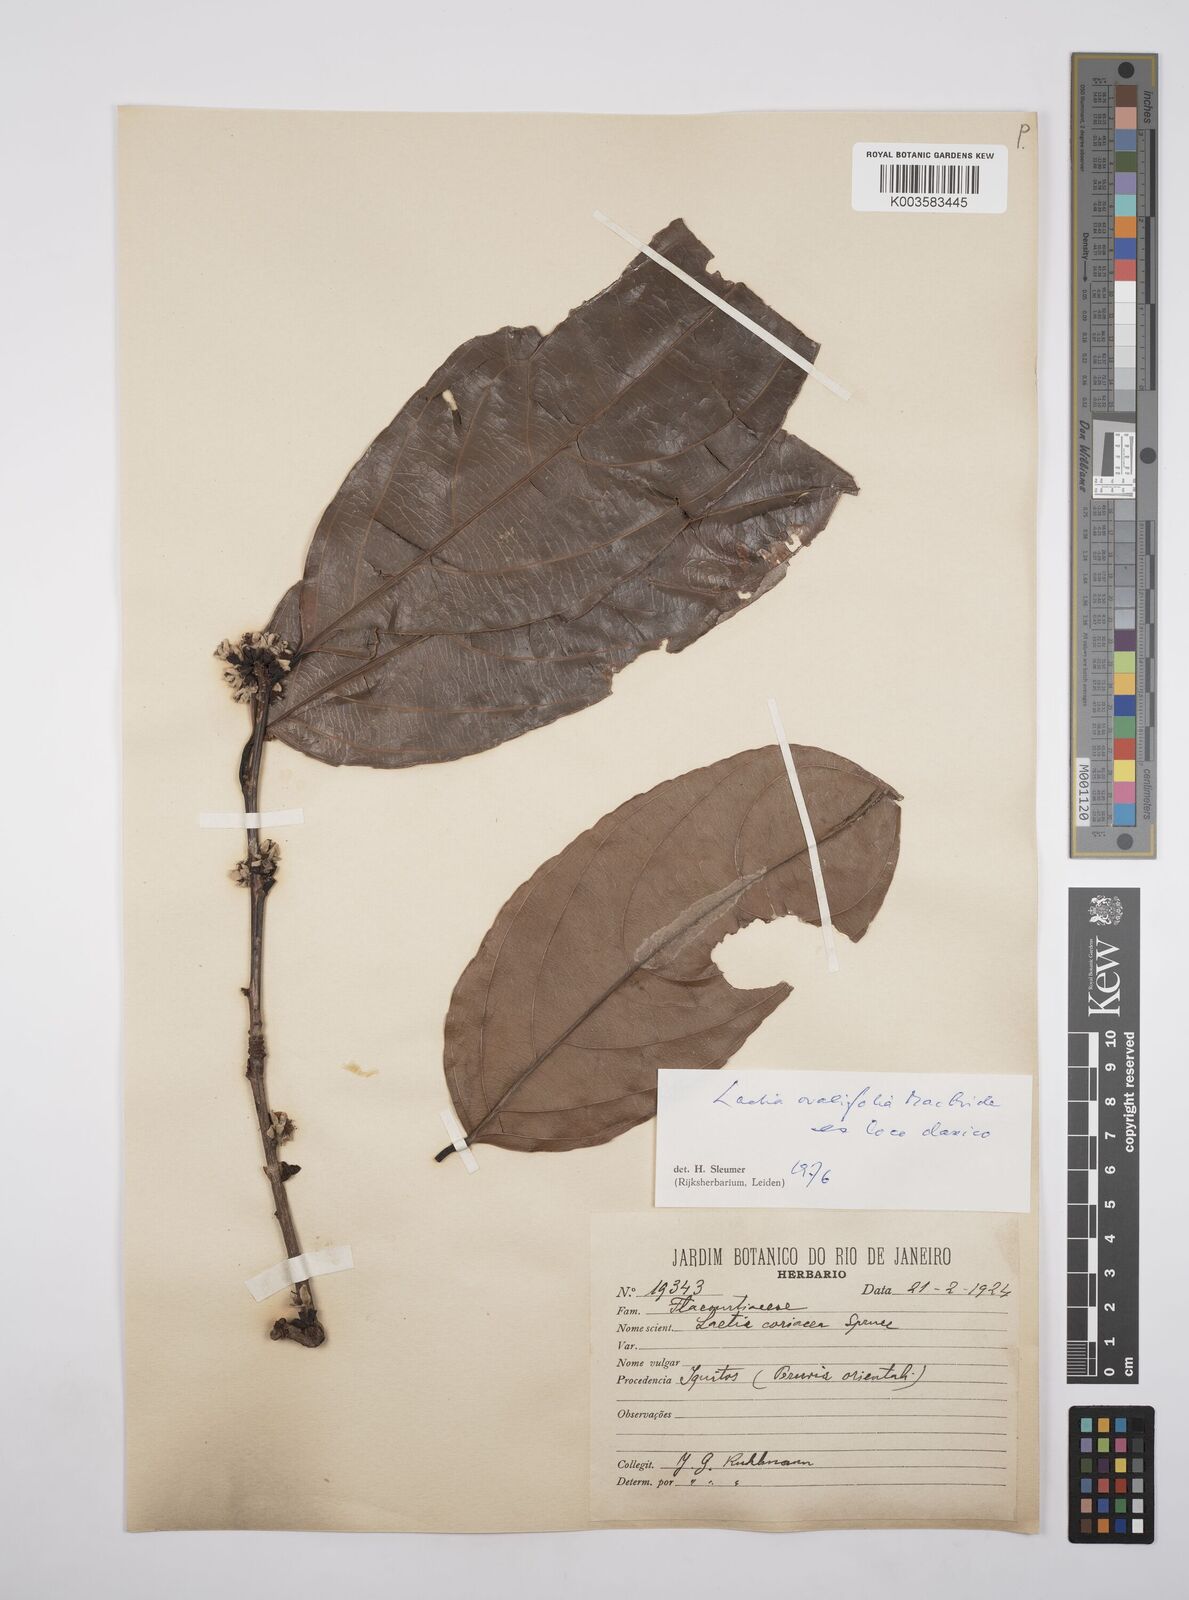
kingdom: Plantae
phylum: Tracheophyta
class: Magnoliopsida
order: Malpighiales
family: Salicaceae
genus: Irenodendron
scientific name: Irenodendron ovalifolium
